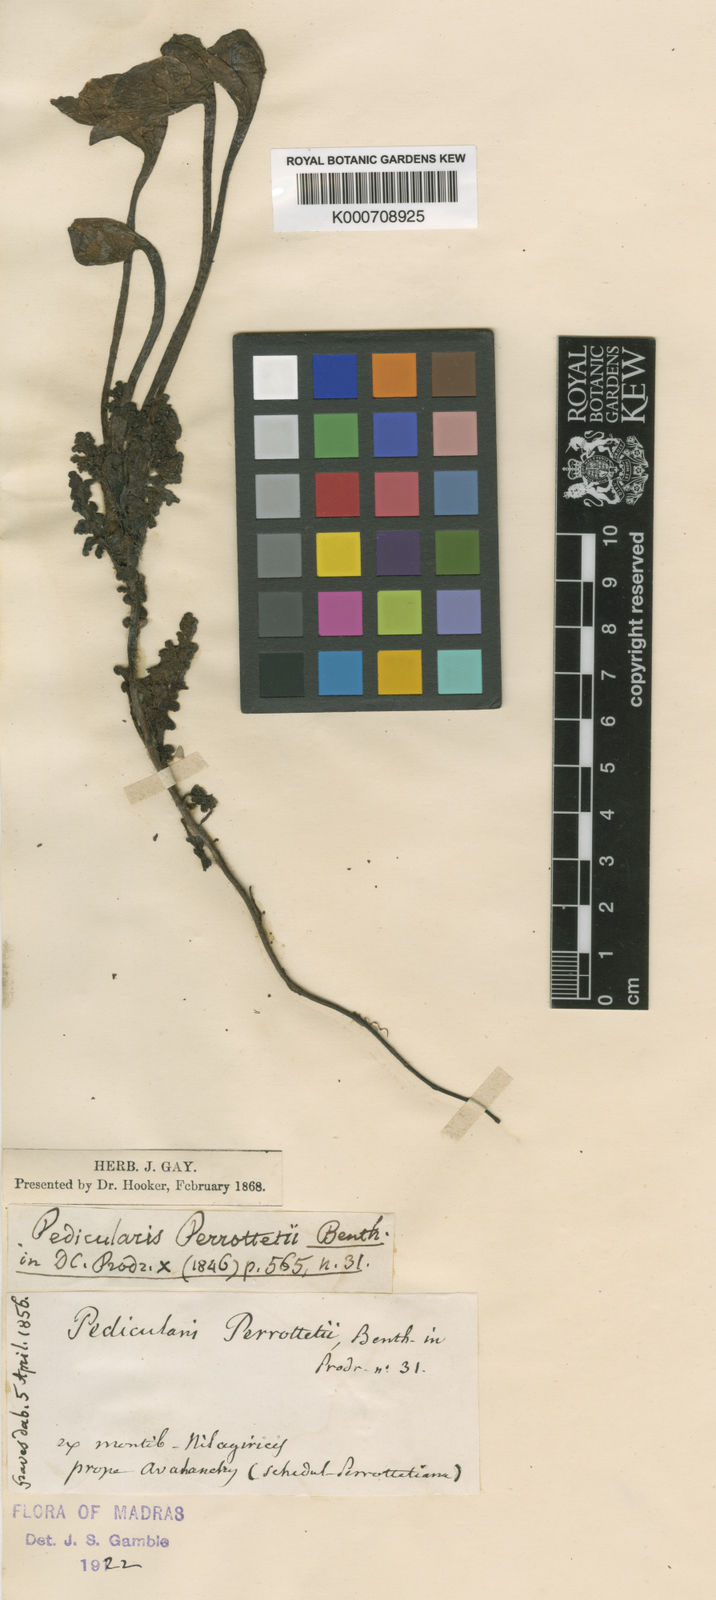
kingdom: Plantae
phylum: Tracheophyta
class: Magnoliopsida
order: Lamiales
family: Orobanchaceae
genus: Pedicularis
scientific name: Pedicularis perrottetii
